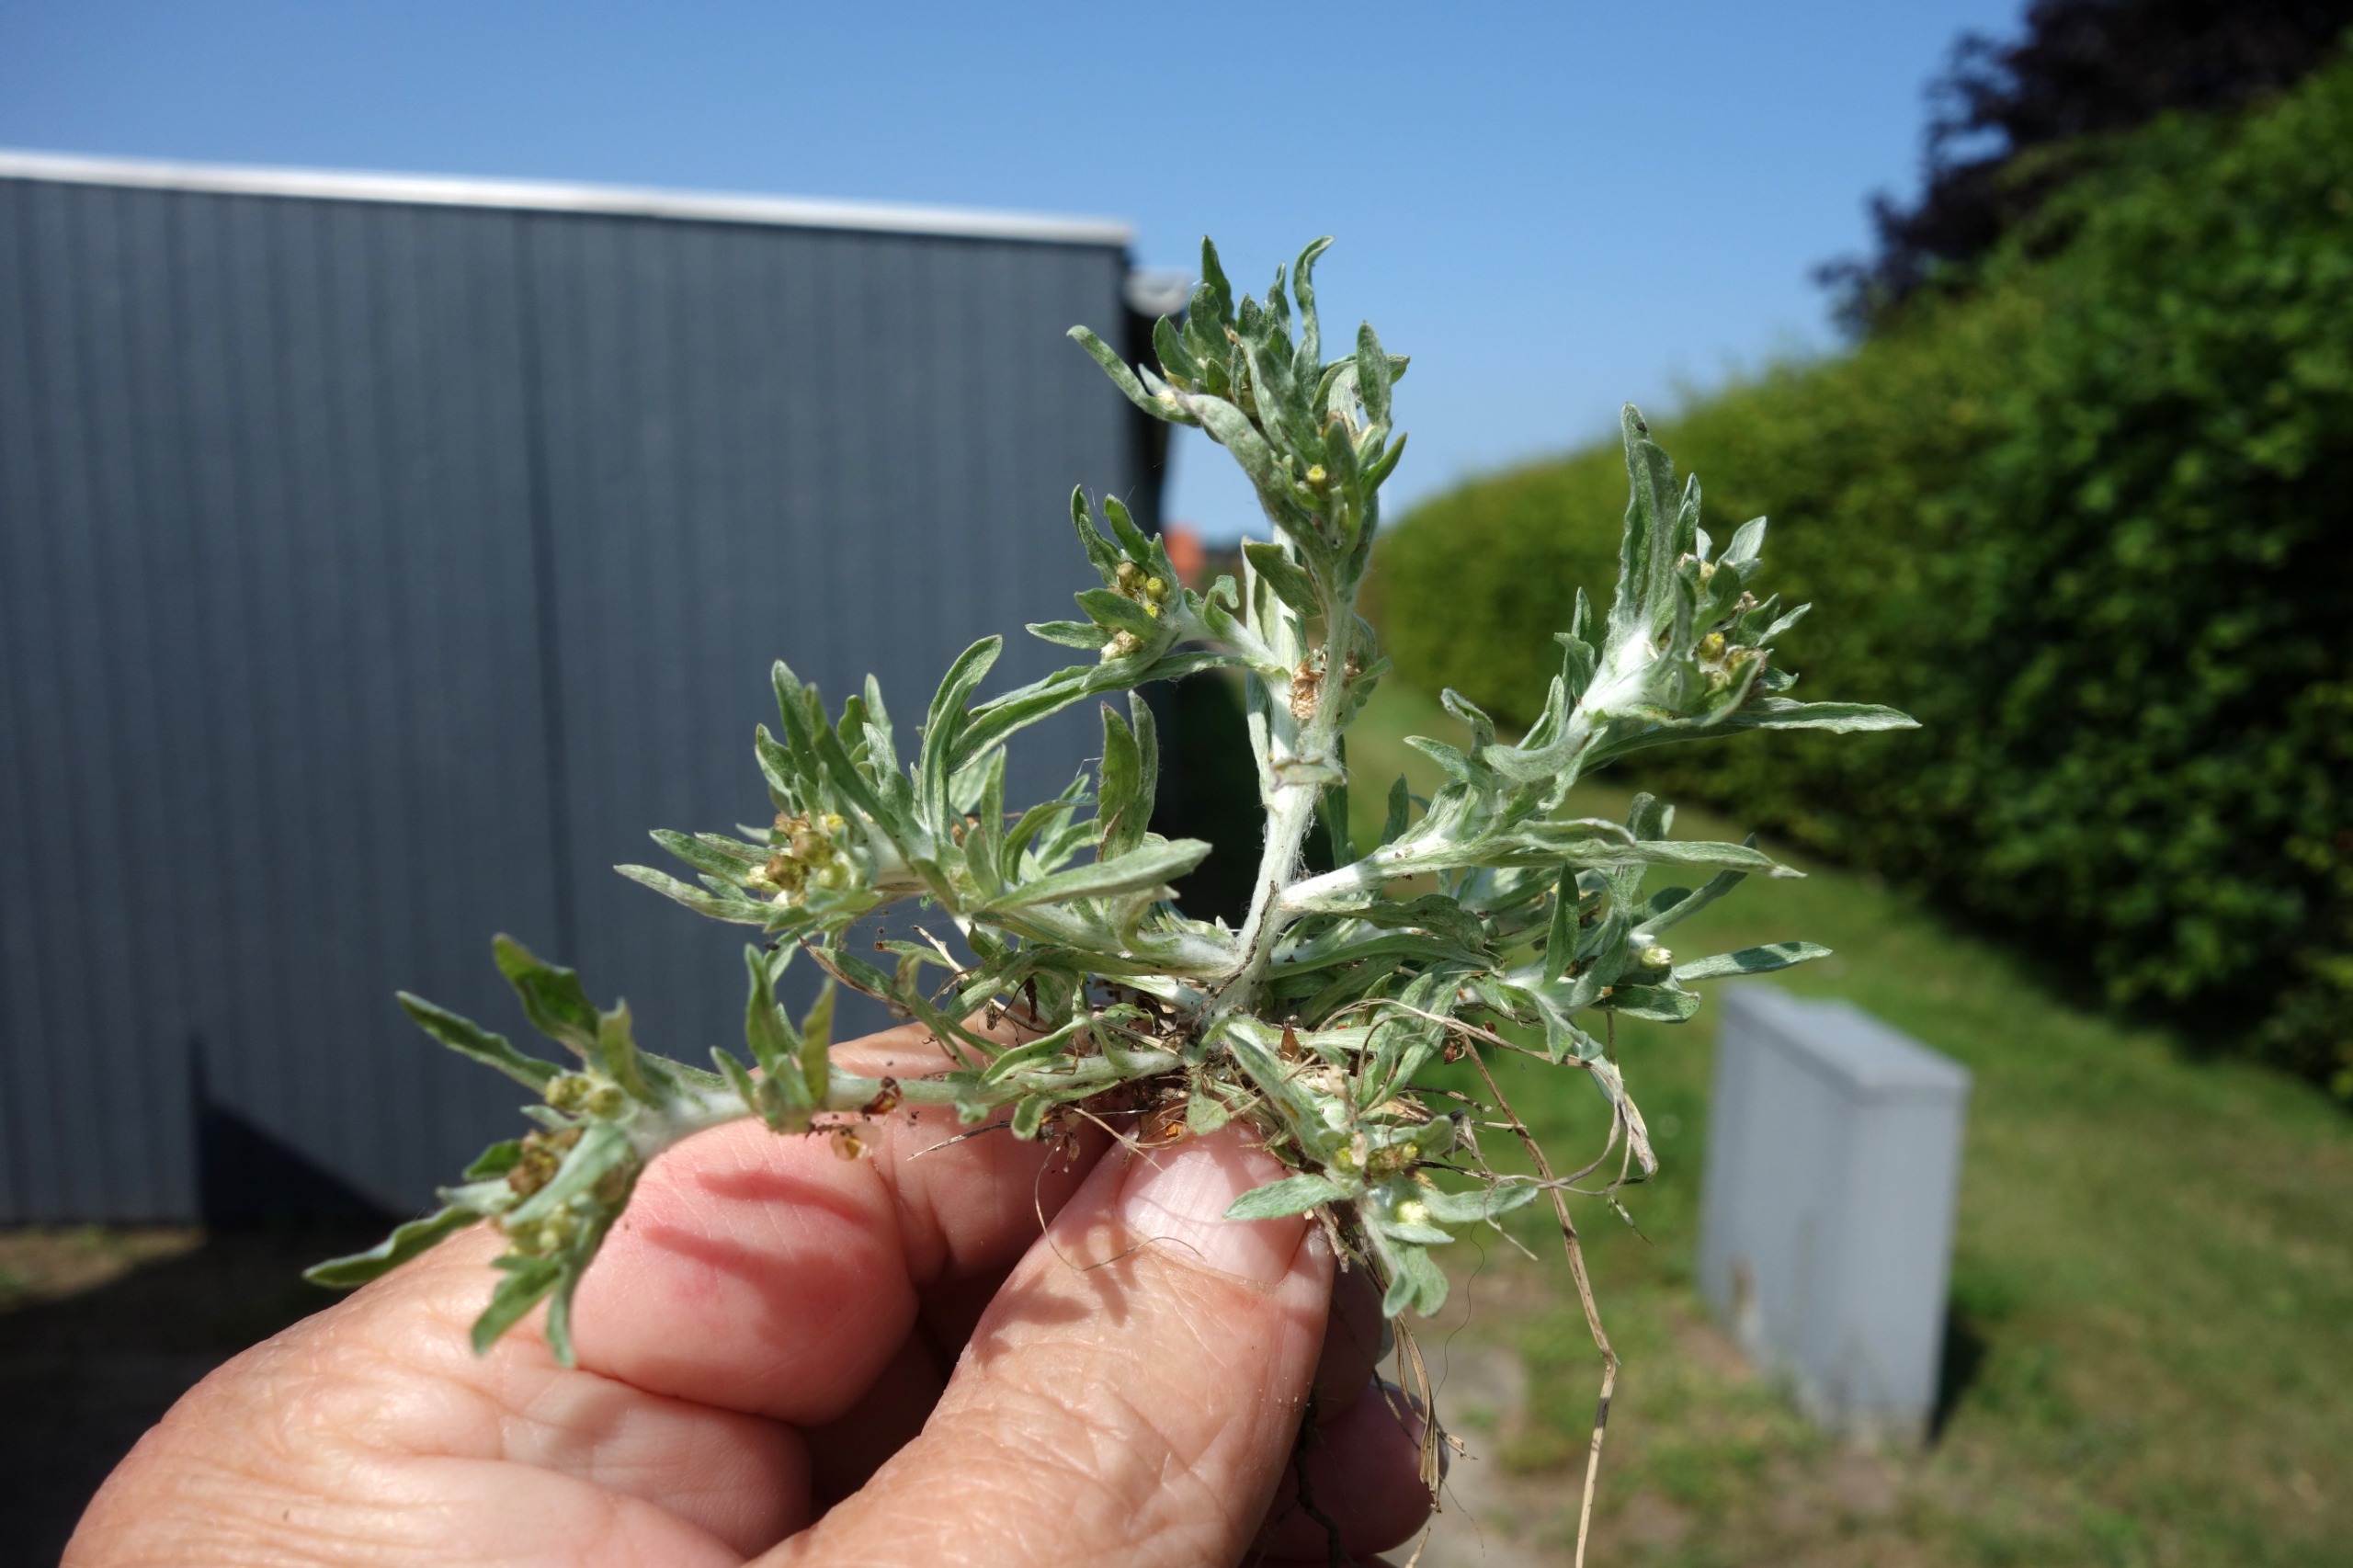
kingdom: Plantae
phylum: Tracheophyta
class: Magnoliopsida
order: Asterales
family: Asteraceae
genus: Gnaphalium
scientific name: Gnaphalium uliginosum
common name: Sump-evighedsblomst
